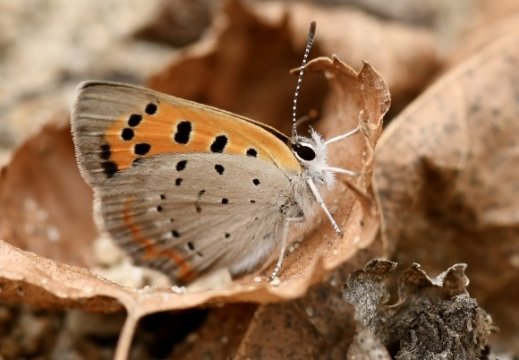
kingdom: Animalia
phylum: Arthropoda
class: Insecta
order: Lepidoptera
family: Lycaenidae
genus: Lycaena
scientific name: Lycaena phlaeas
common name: American Copper
